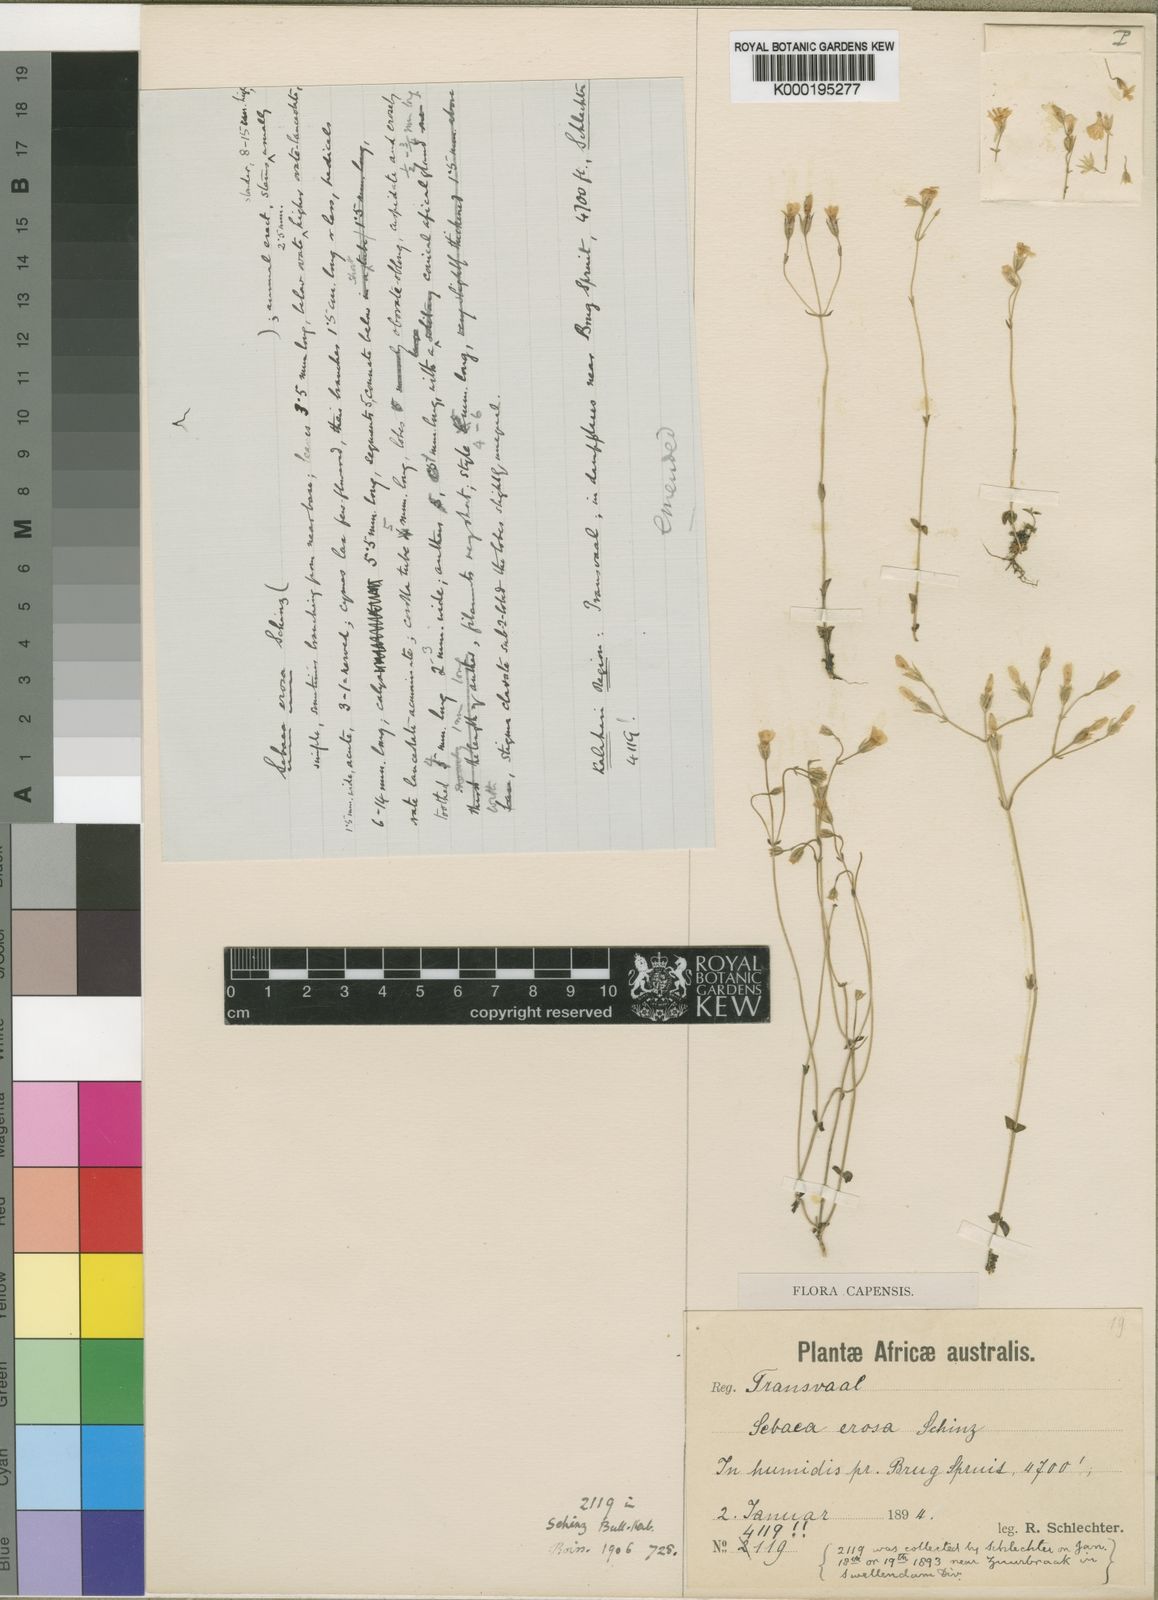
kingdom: Plantae
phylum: Tracheophyta
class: Magnoliopsida
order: Gentianales
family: Gentianaceae
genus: Sebaea
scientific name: Sebaea erosa
